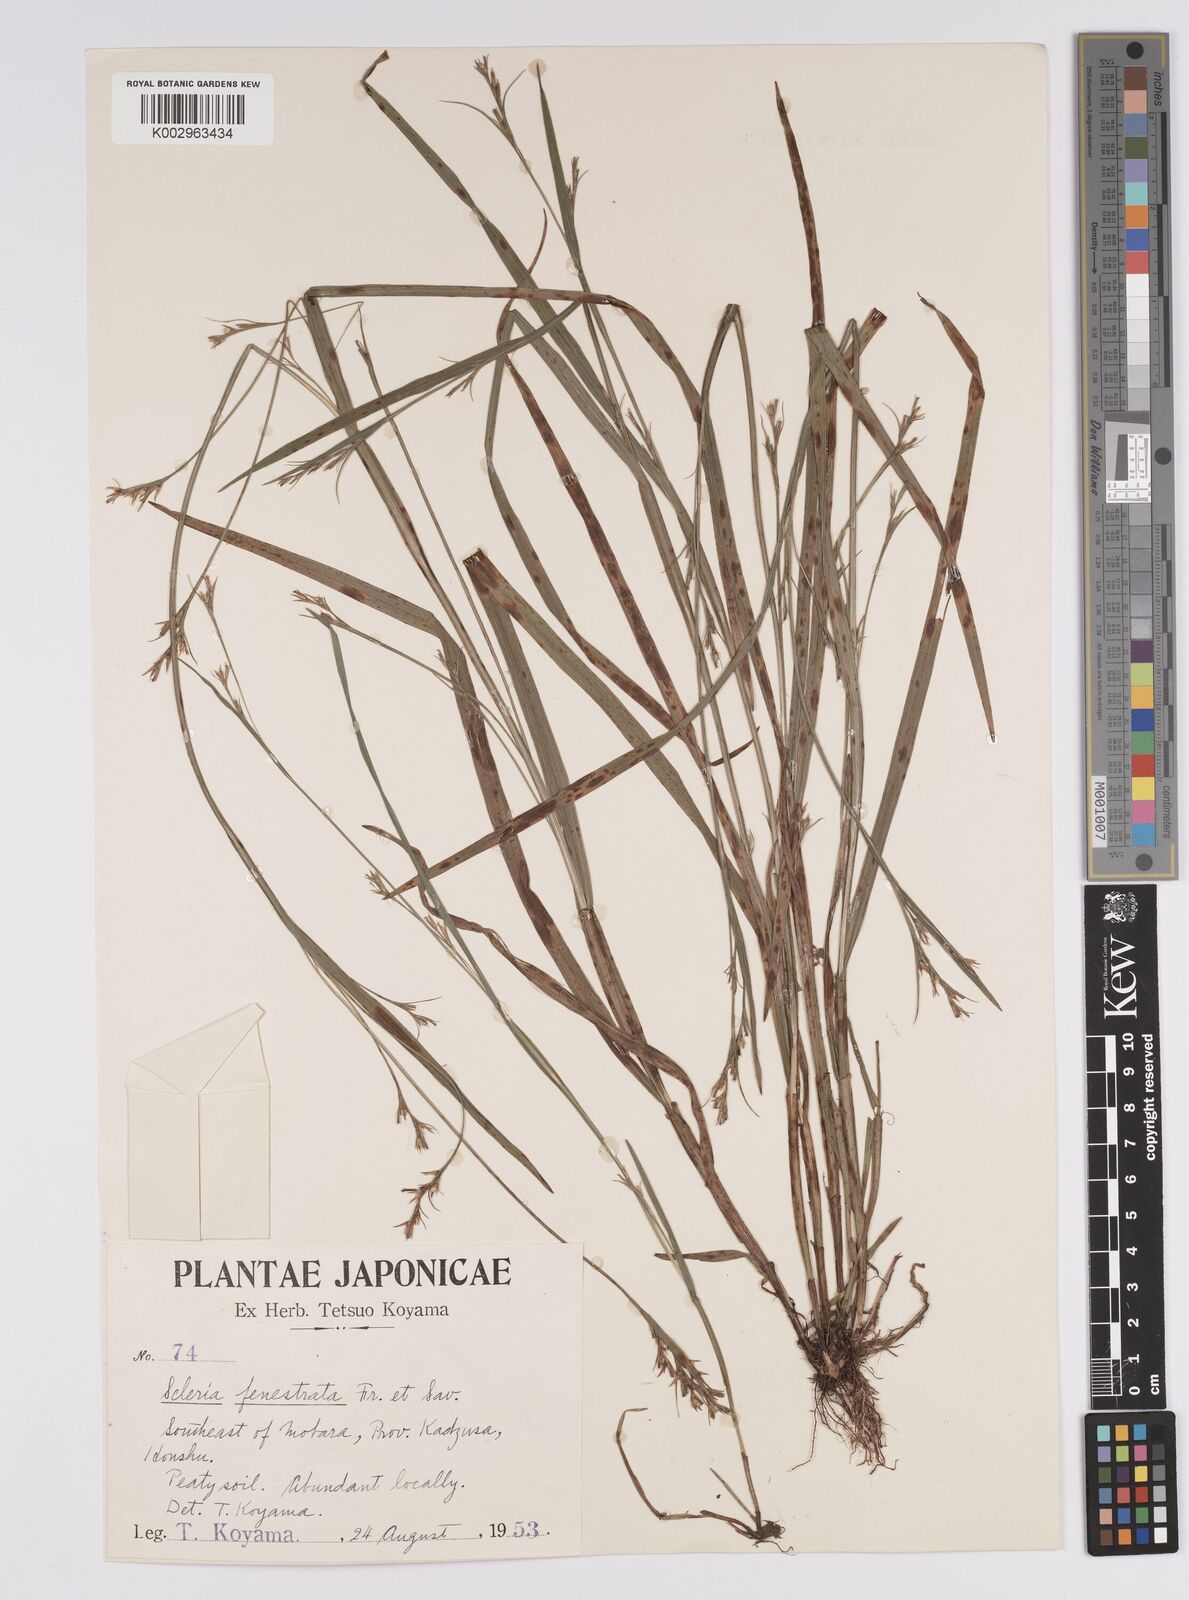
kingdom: Plantae
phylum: Tracheophyta
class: Liliopsida
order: Poales
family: Cyperaceae
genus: Scleria
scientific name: Scleria tessellata
